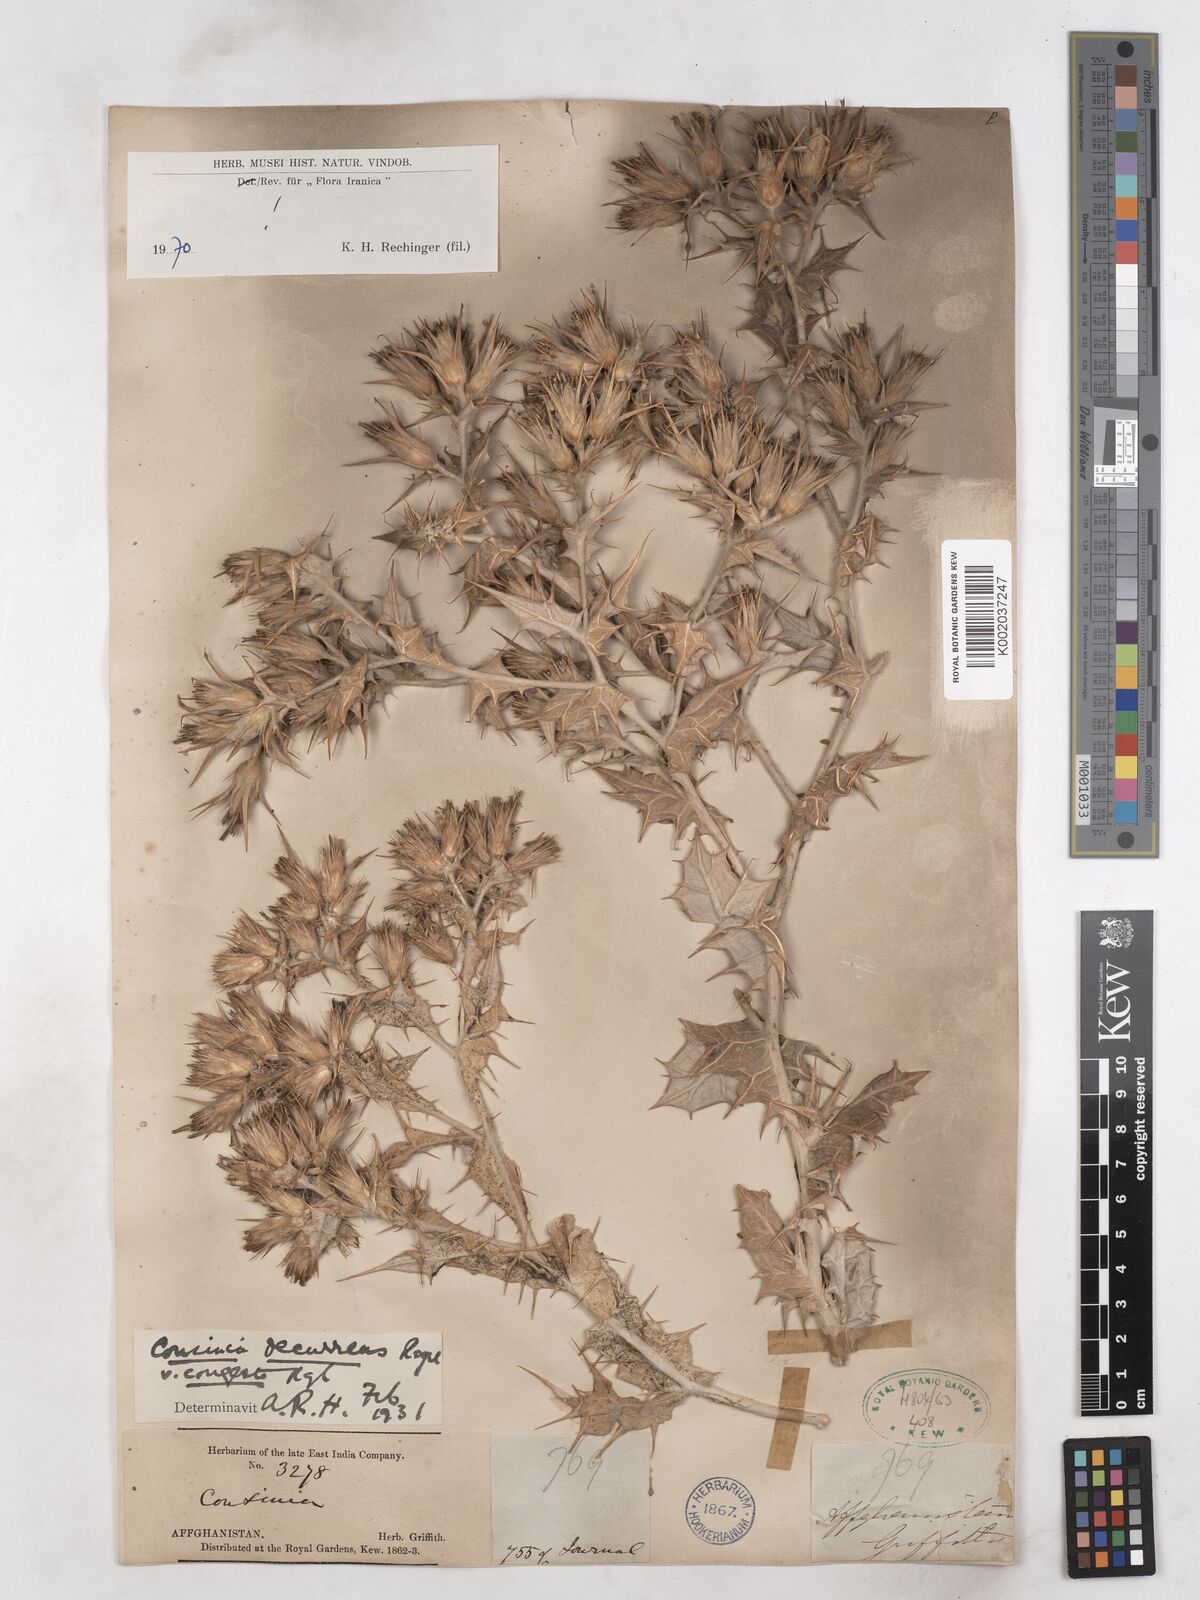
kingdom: Plantae
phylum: Tracheophyta
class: Magnoliopsida
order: Asterales
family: Asteraceae
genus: Cousinia
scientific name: Cousinia decurrens
